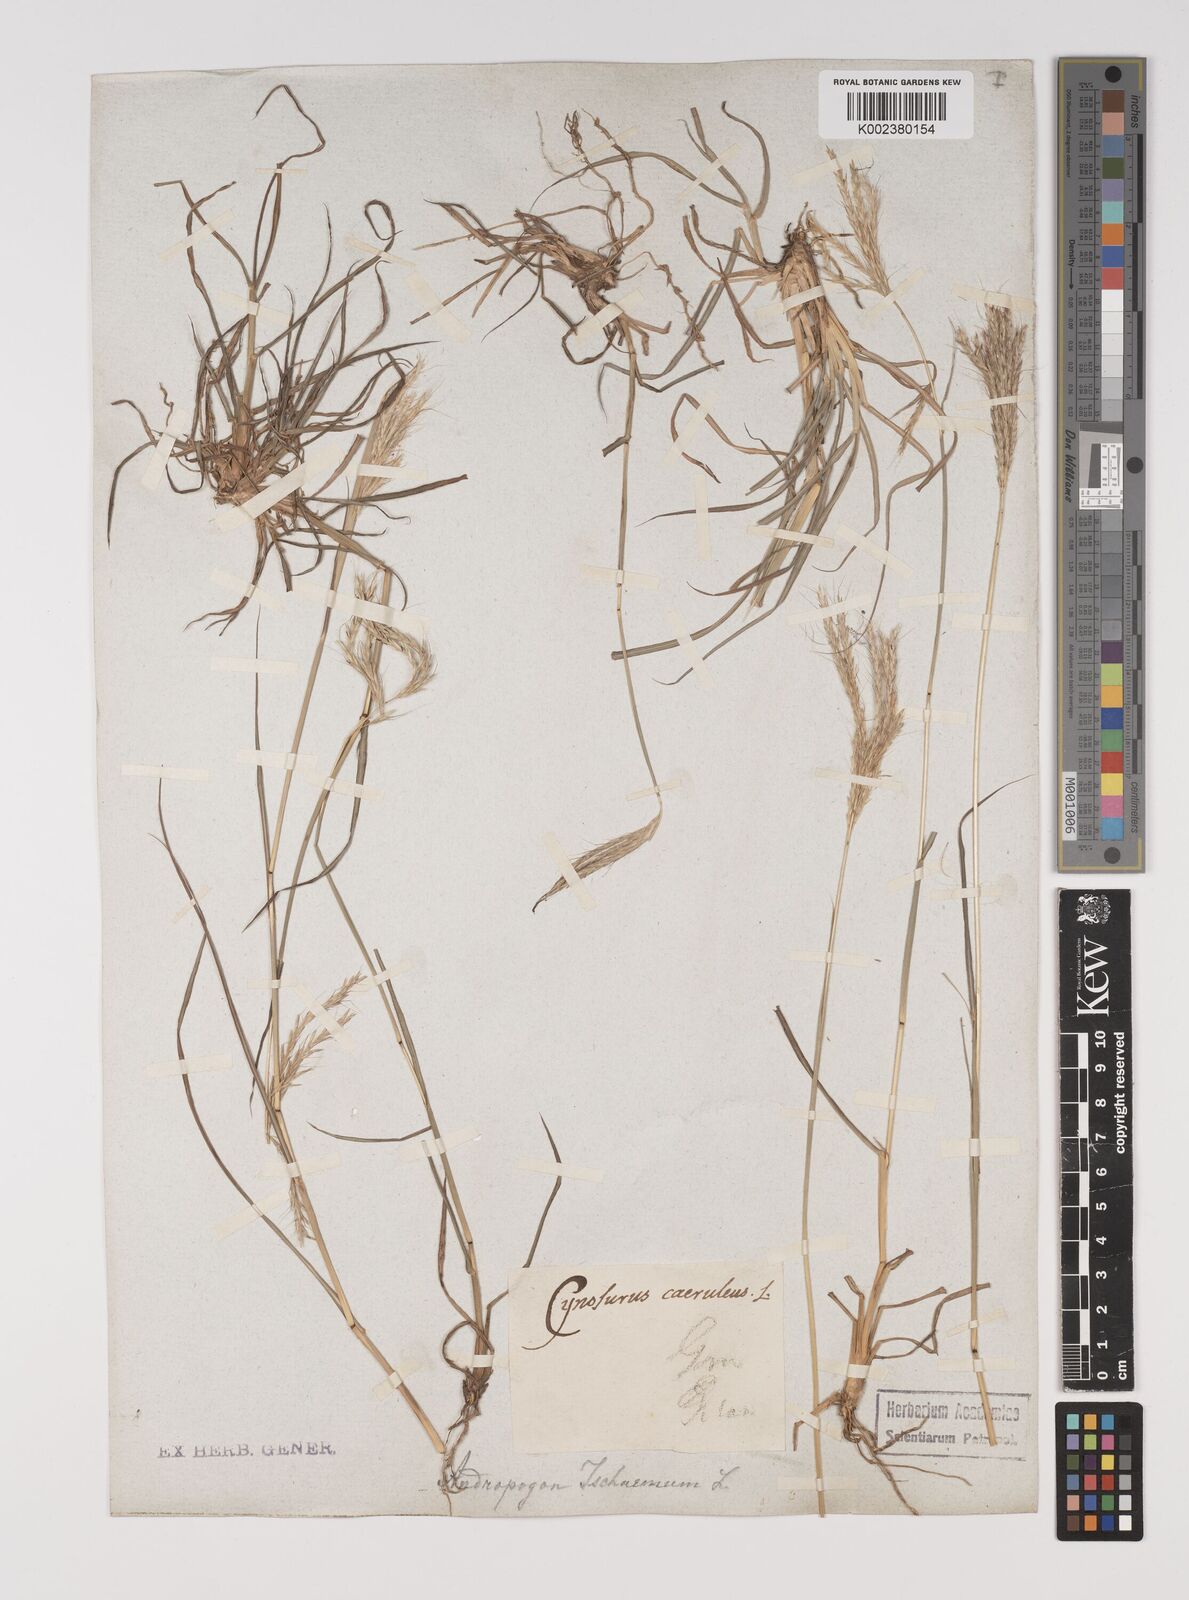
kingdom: Plantae
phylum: Tracheophyta
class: Liliopsida
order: Poales
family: Poaceae
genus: Bothriochloa
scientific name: Bothriochloa ischaemum
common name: Yellow bluestem
